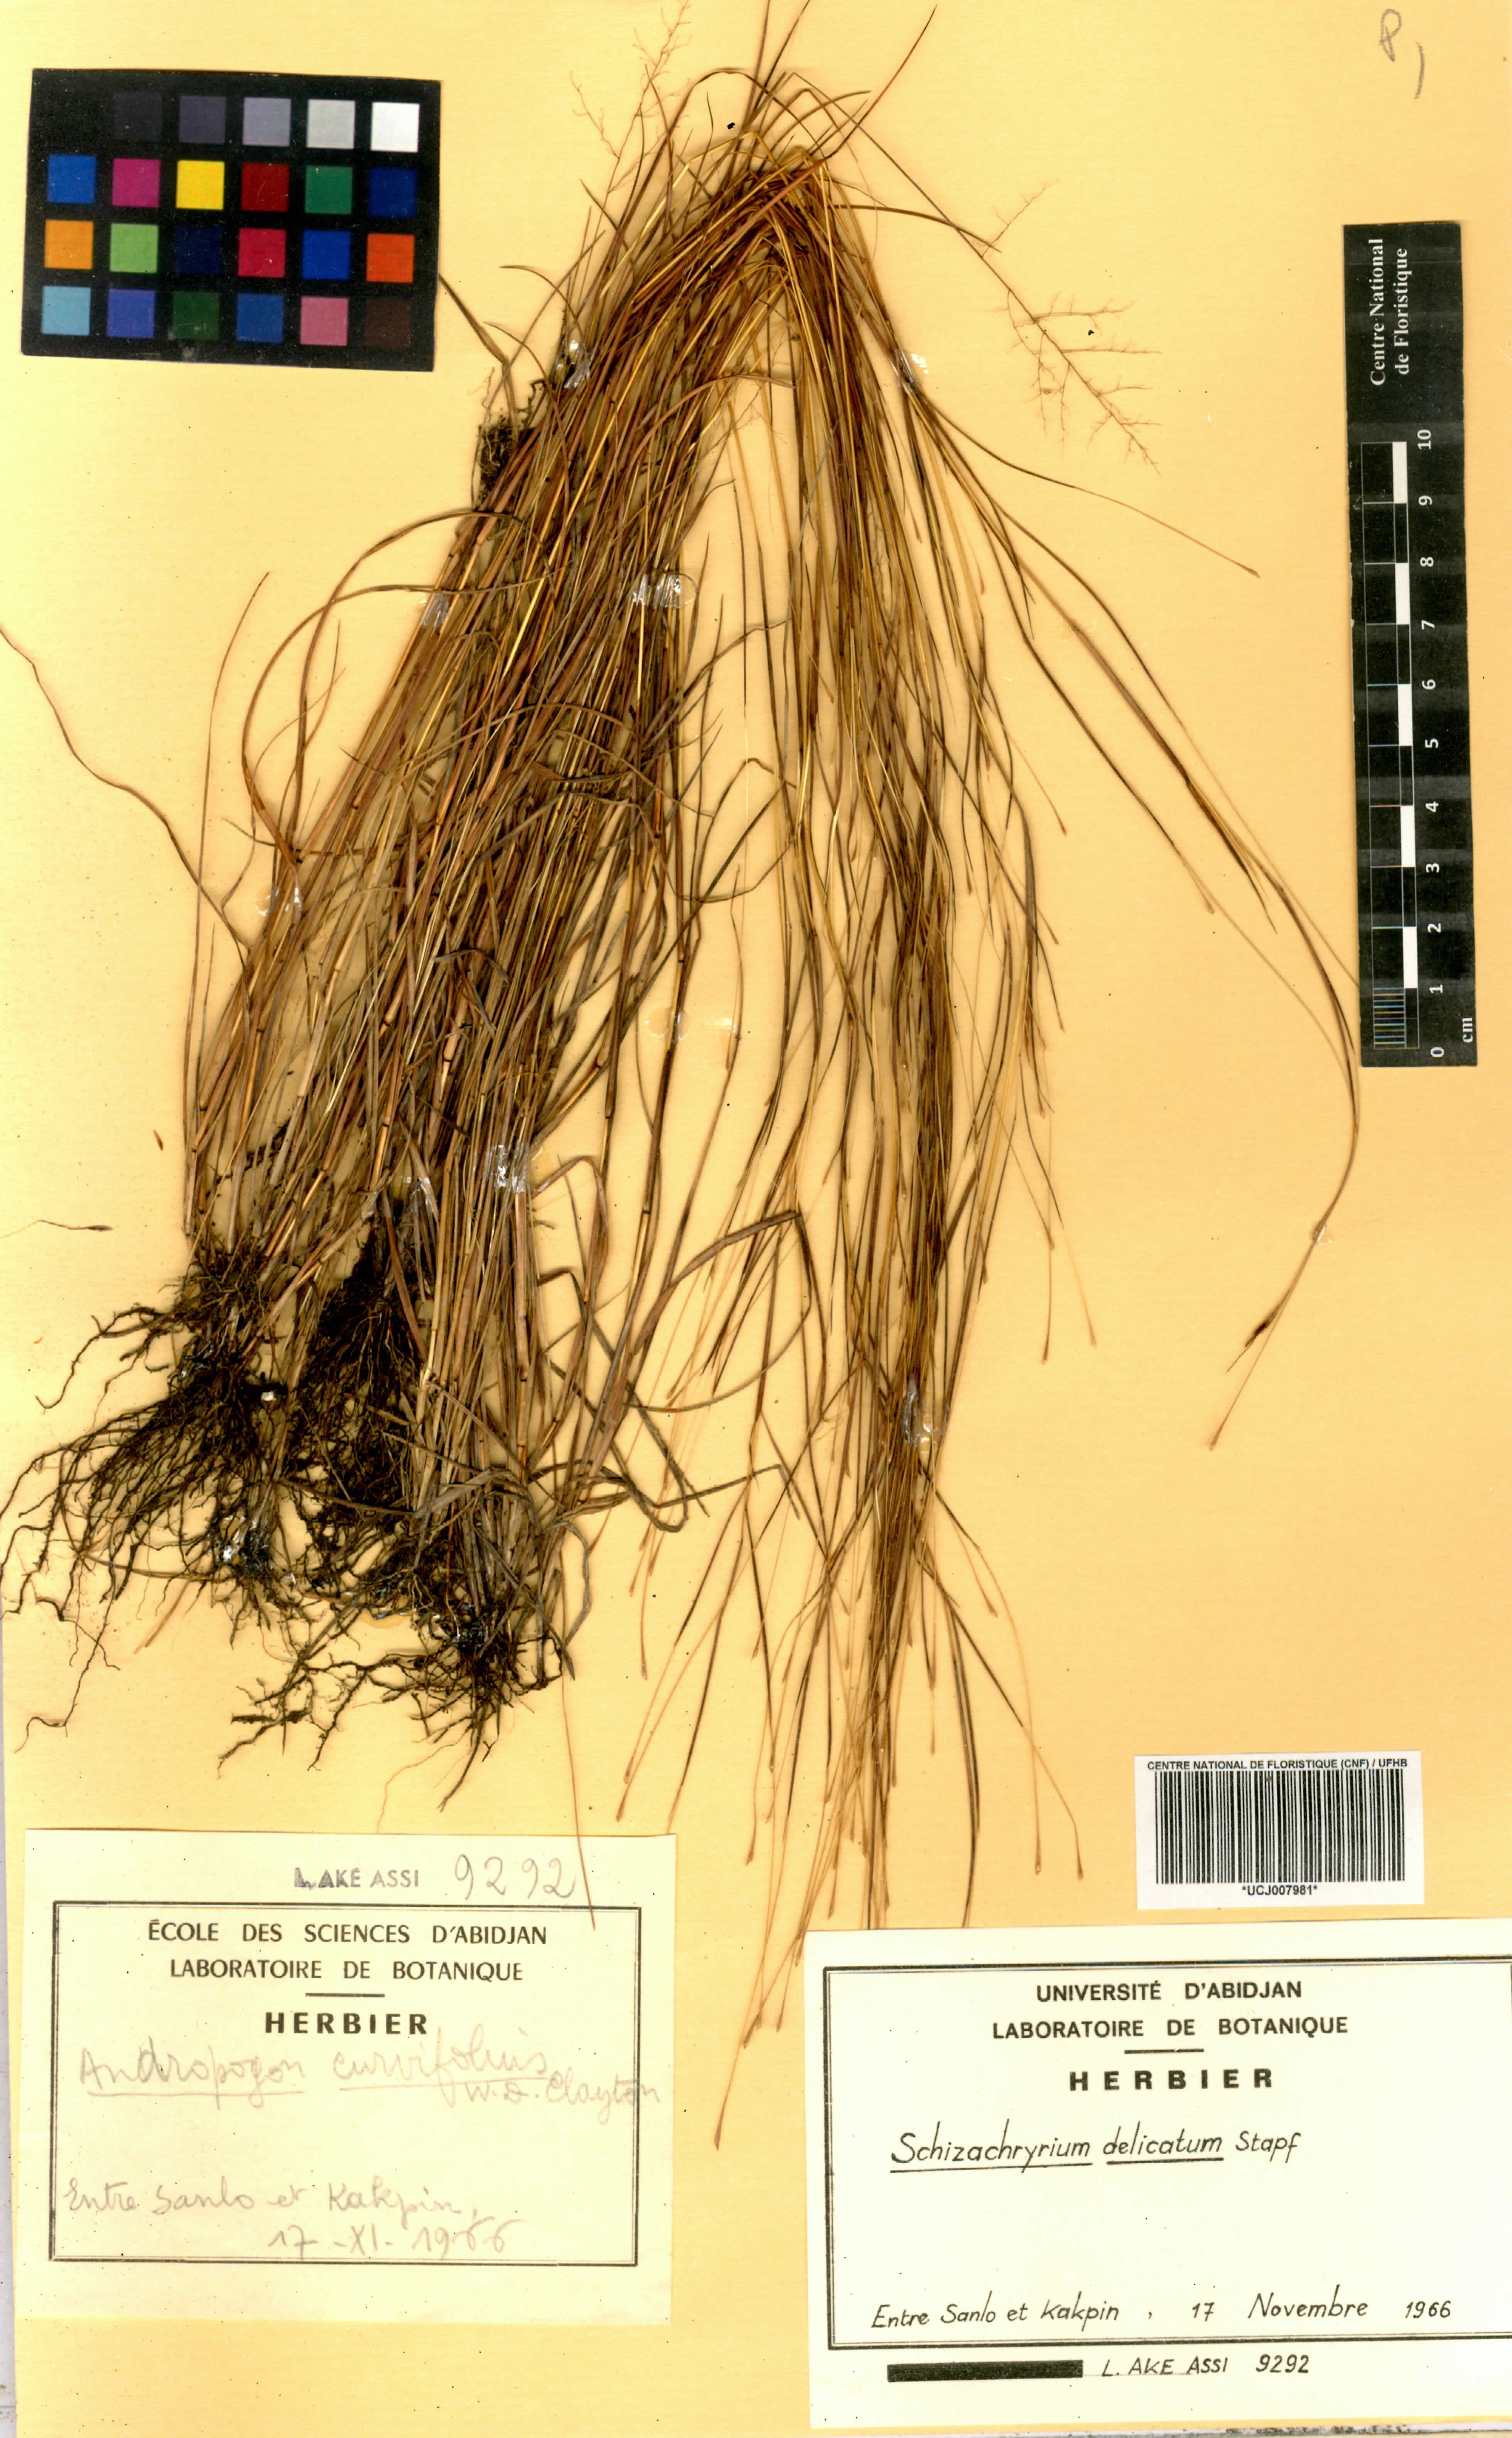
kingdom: Plantae
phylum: Tracheophyta
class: Liliopsida
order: Poales
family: Poaceae
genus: Schizachyrium
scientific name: Schizachyrium delicatum
